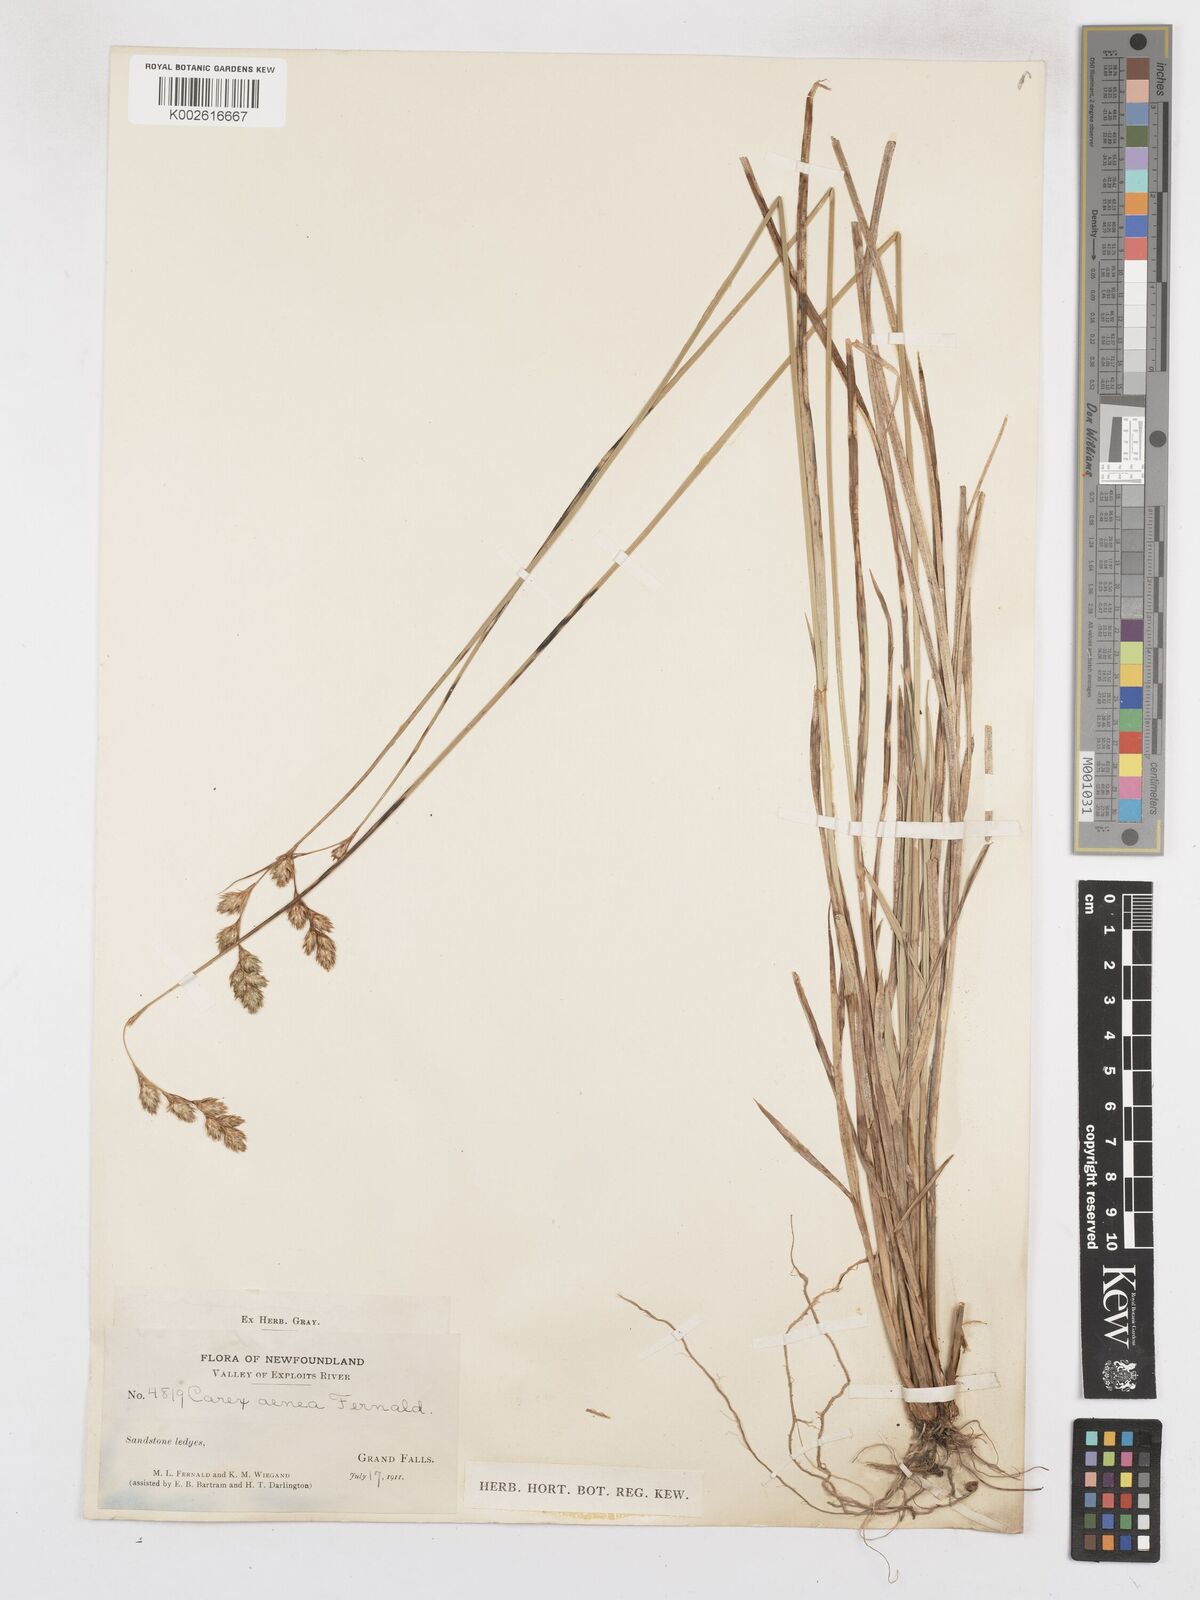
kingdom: Plantae
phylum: Tracheophyta
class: Liliopsida
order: Poales
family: Cyperaceae
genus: Carex
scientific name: Carex foenea
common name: Bronze sedge
